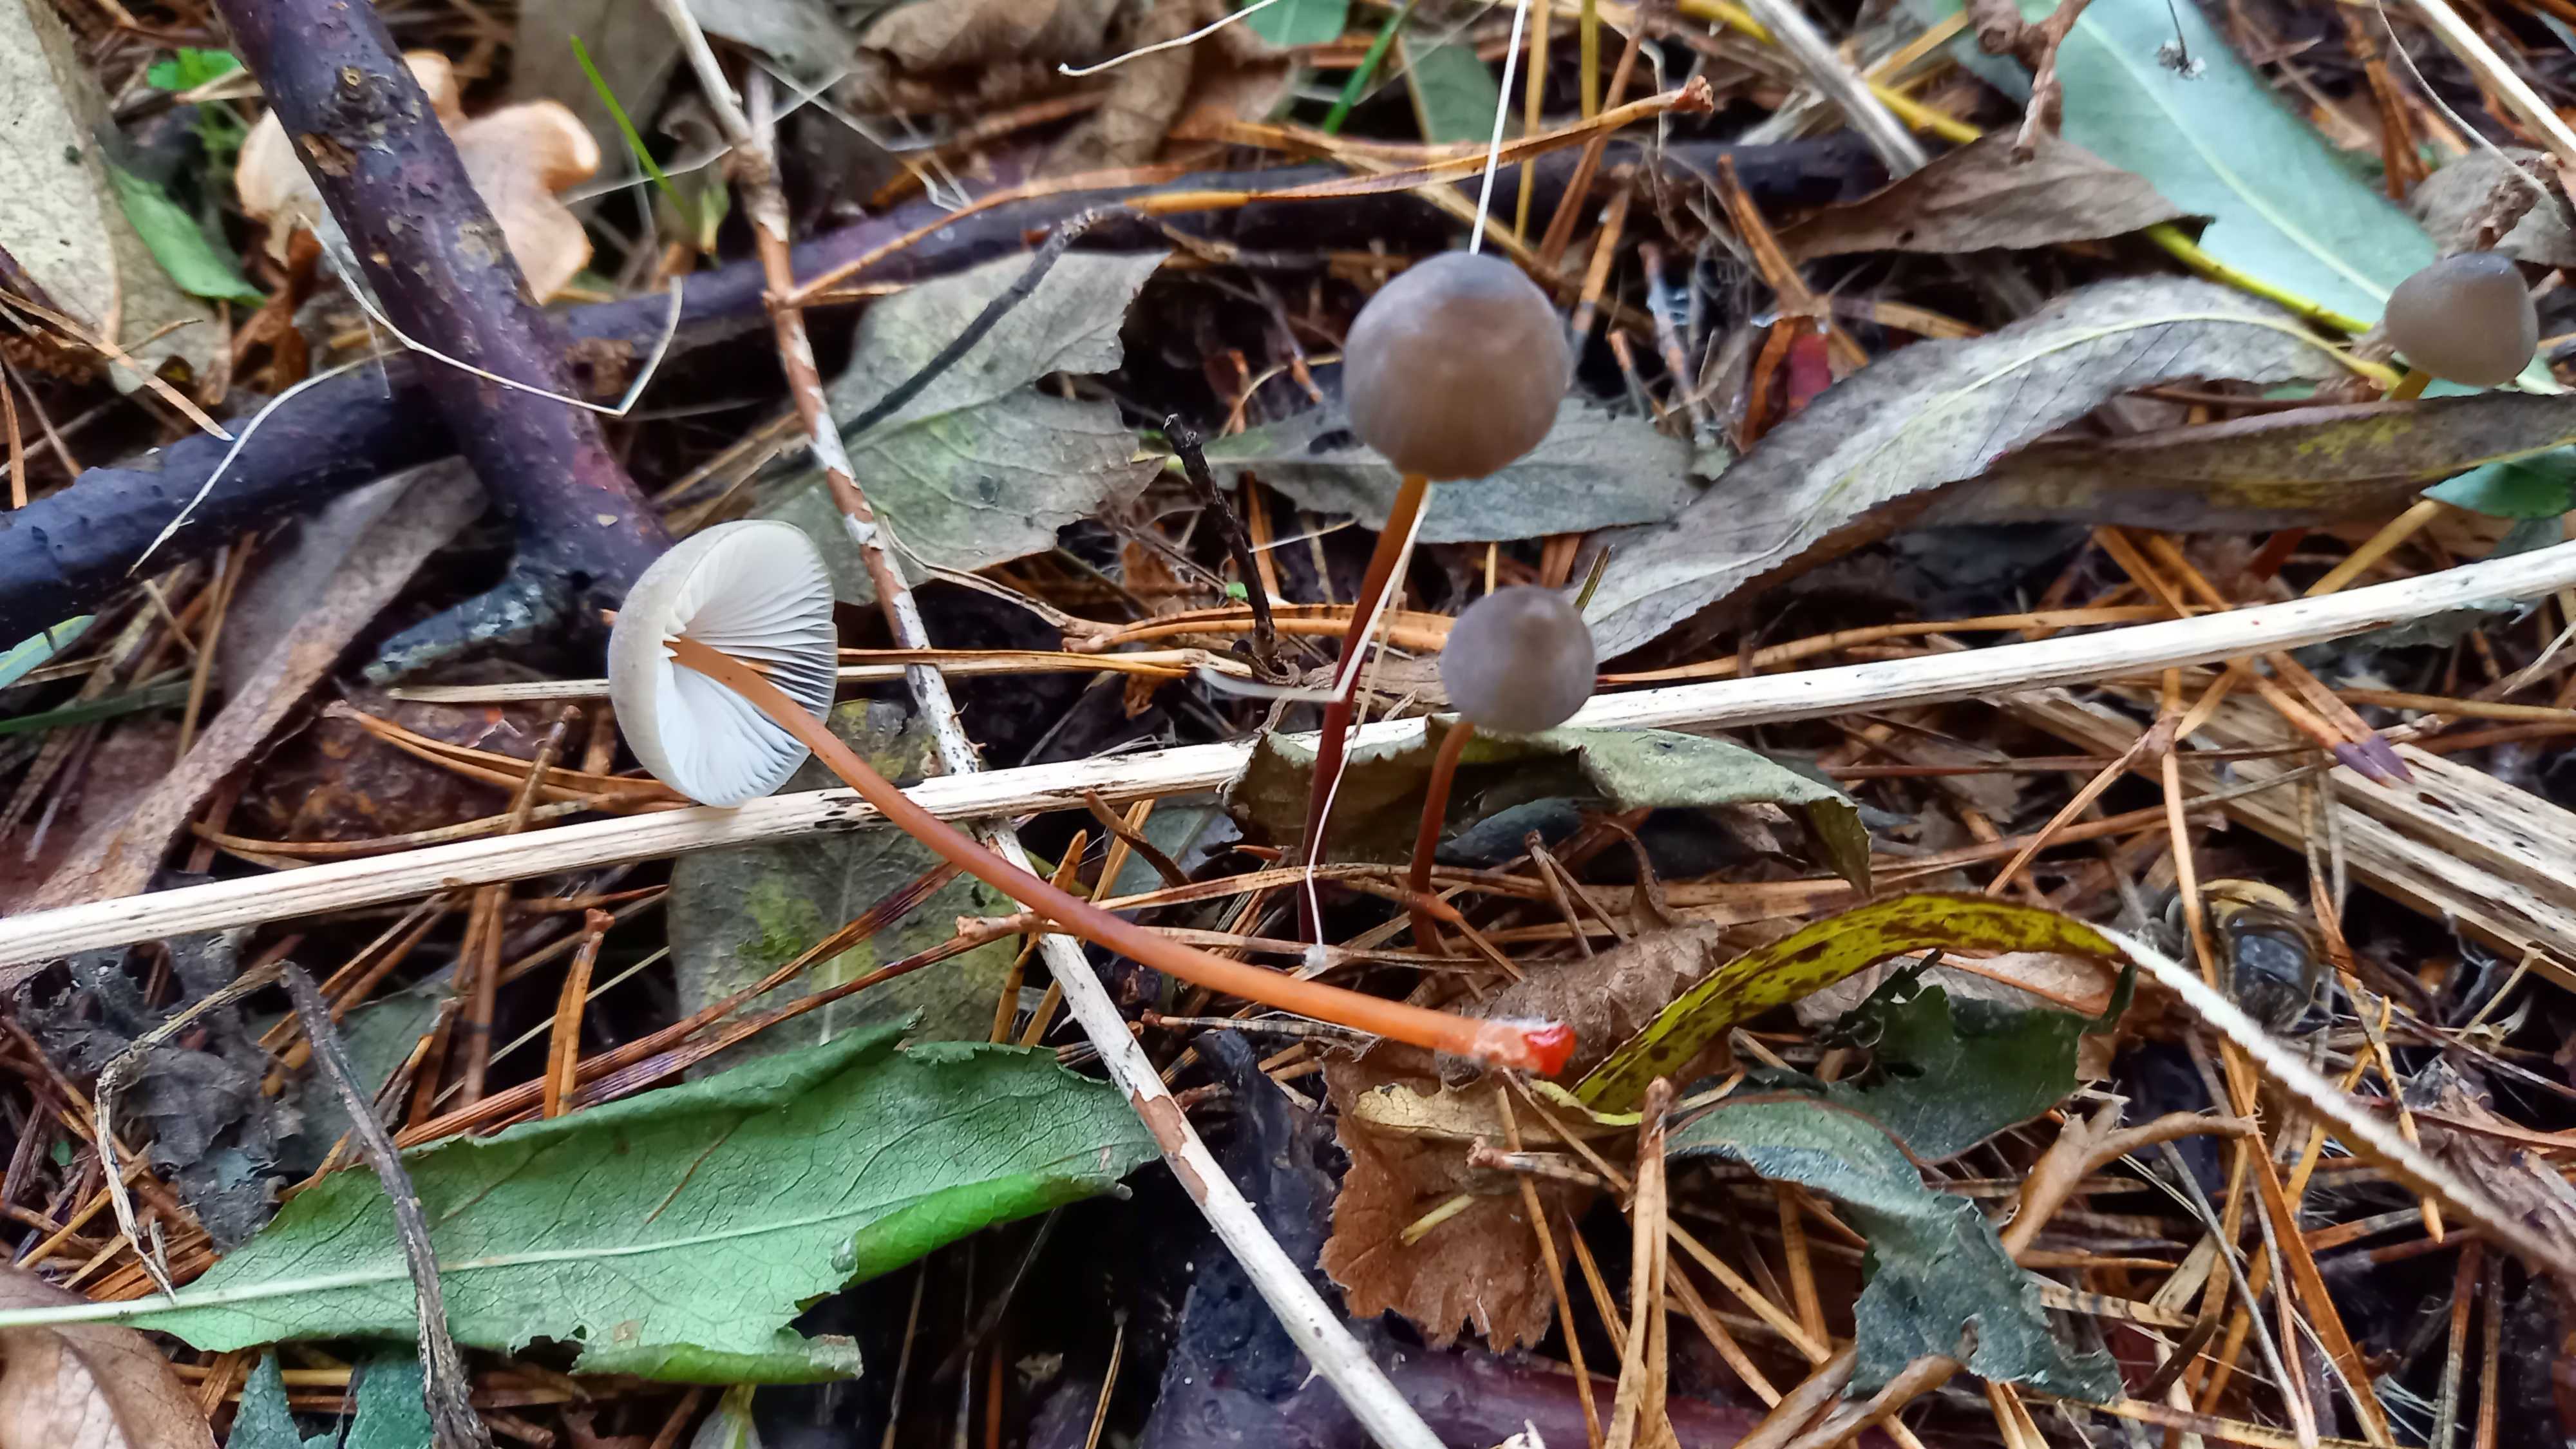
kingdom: Fungi
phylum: Basidiomycota
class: Agaricomycetes
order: Agaricales
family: Mycenaceae
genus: Mycena
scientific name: Mycena crocata
